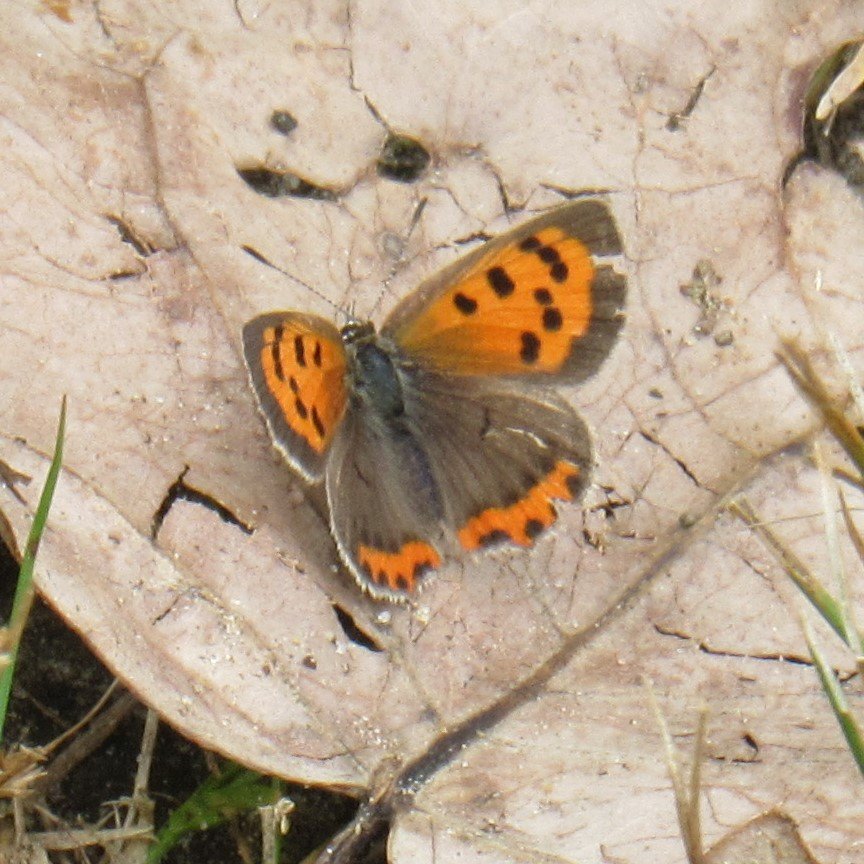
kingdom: Animalia
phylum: Arthropoda
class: Insecta
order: Lepidoptera
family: Lycaenidae
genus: Lycaena
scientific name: Lycaena phlaeas
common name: American Copper
